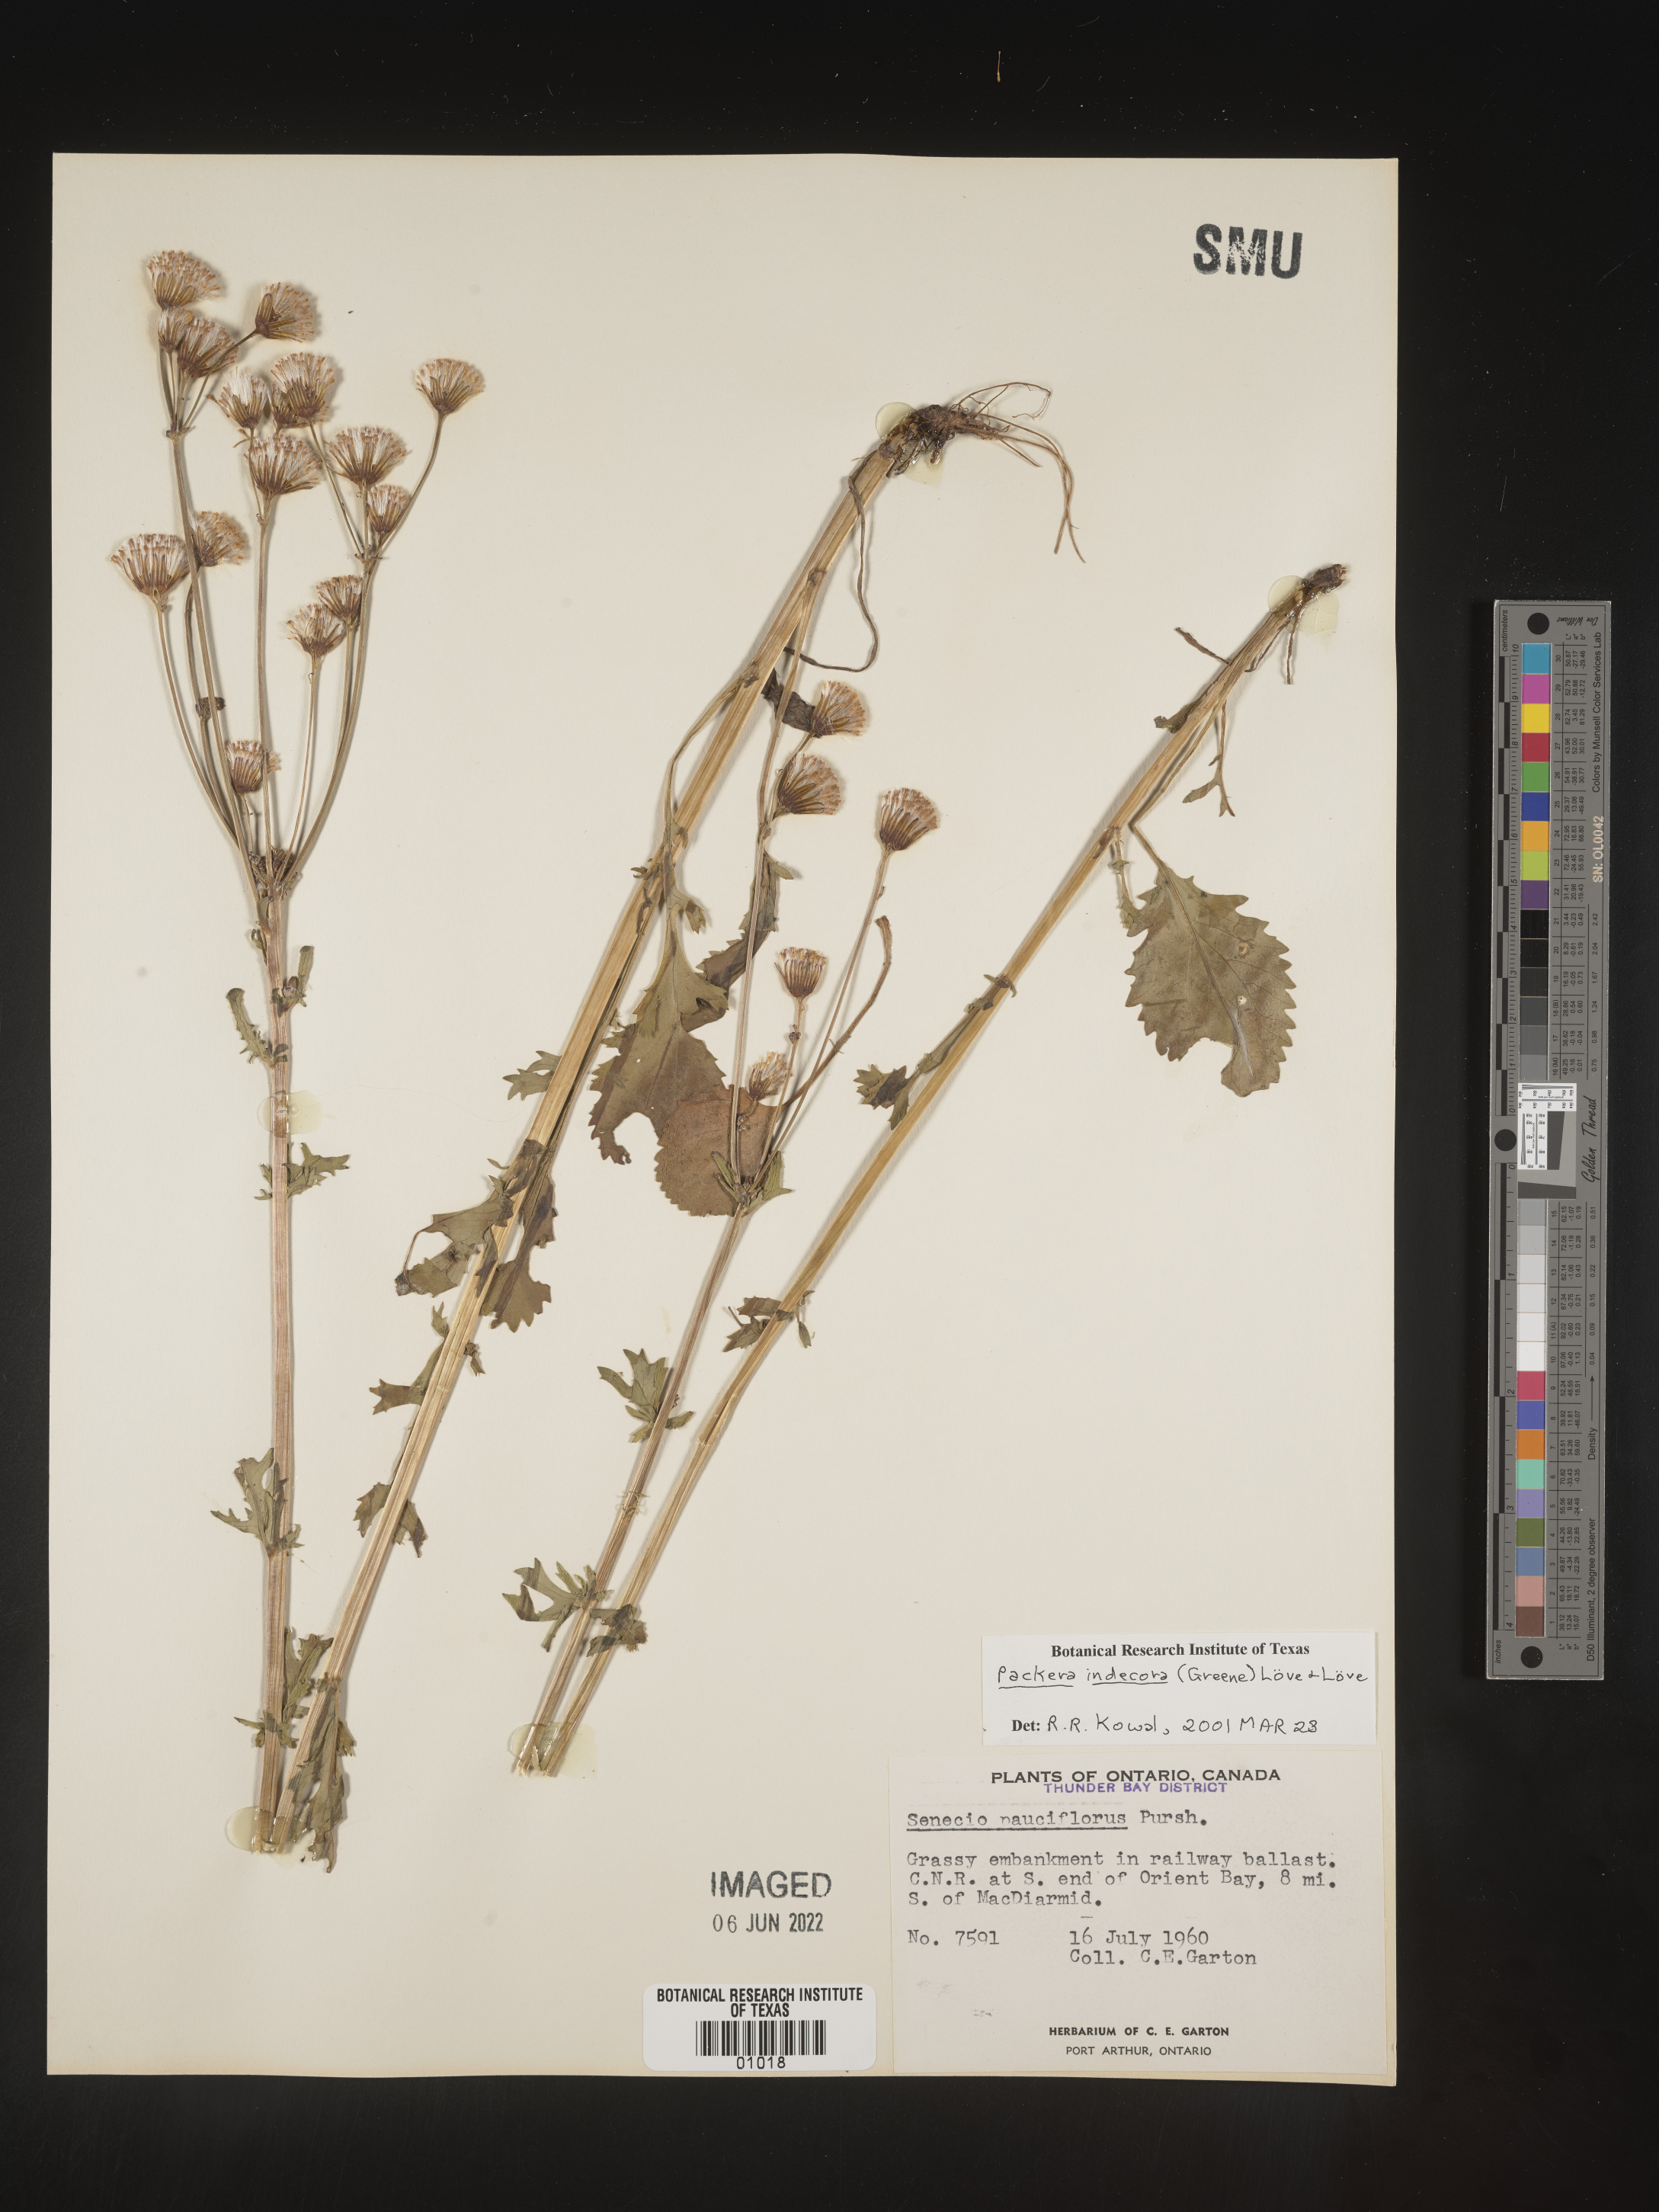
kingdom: Plantae
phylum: Tracheophyta
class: Magnoliopsida
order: Asterales
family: Asteraceae
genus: Packera
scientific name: Packera
